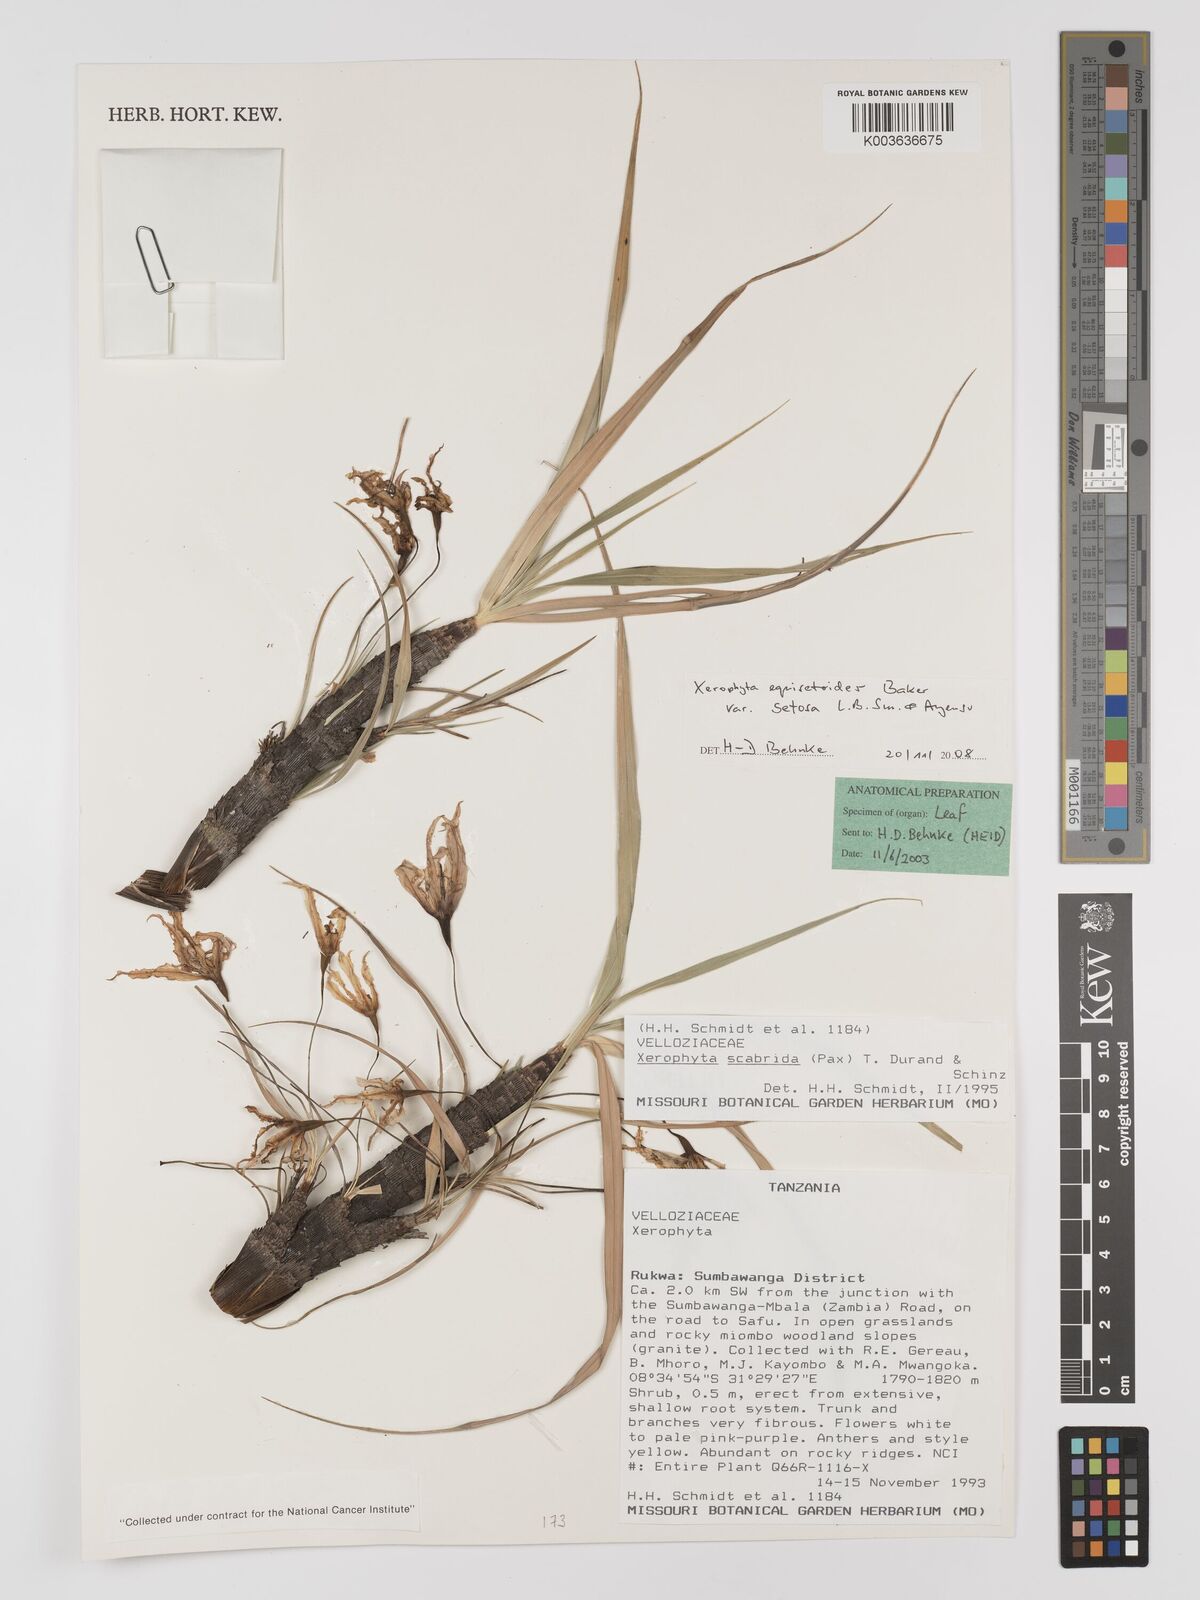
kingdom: Plantae
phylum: Tracheophyta
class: Liliopsida
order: Pandanales
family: Velloziaceae
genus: Xerophyta
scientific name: Xerophyta equisetoides
